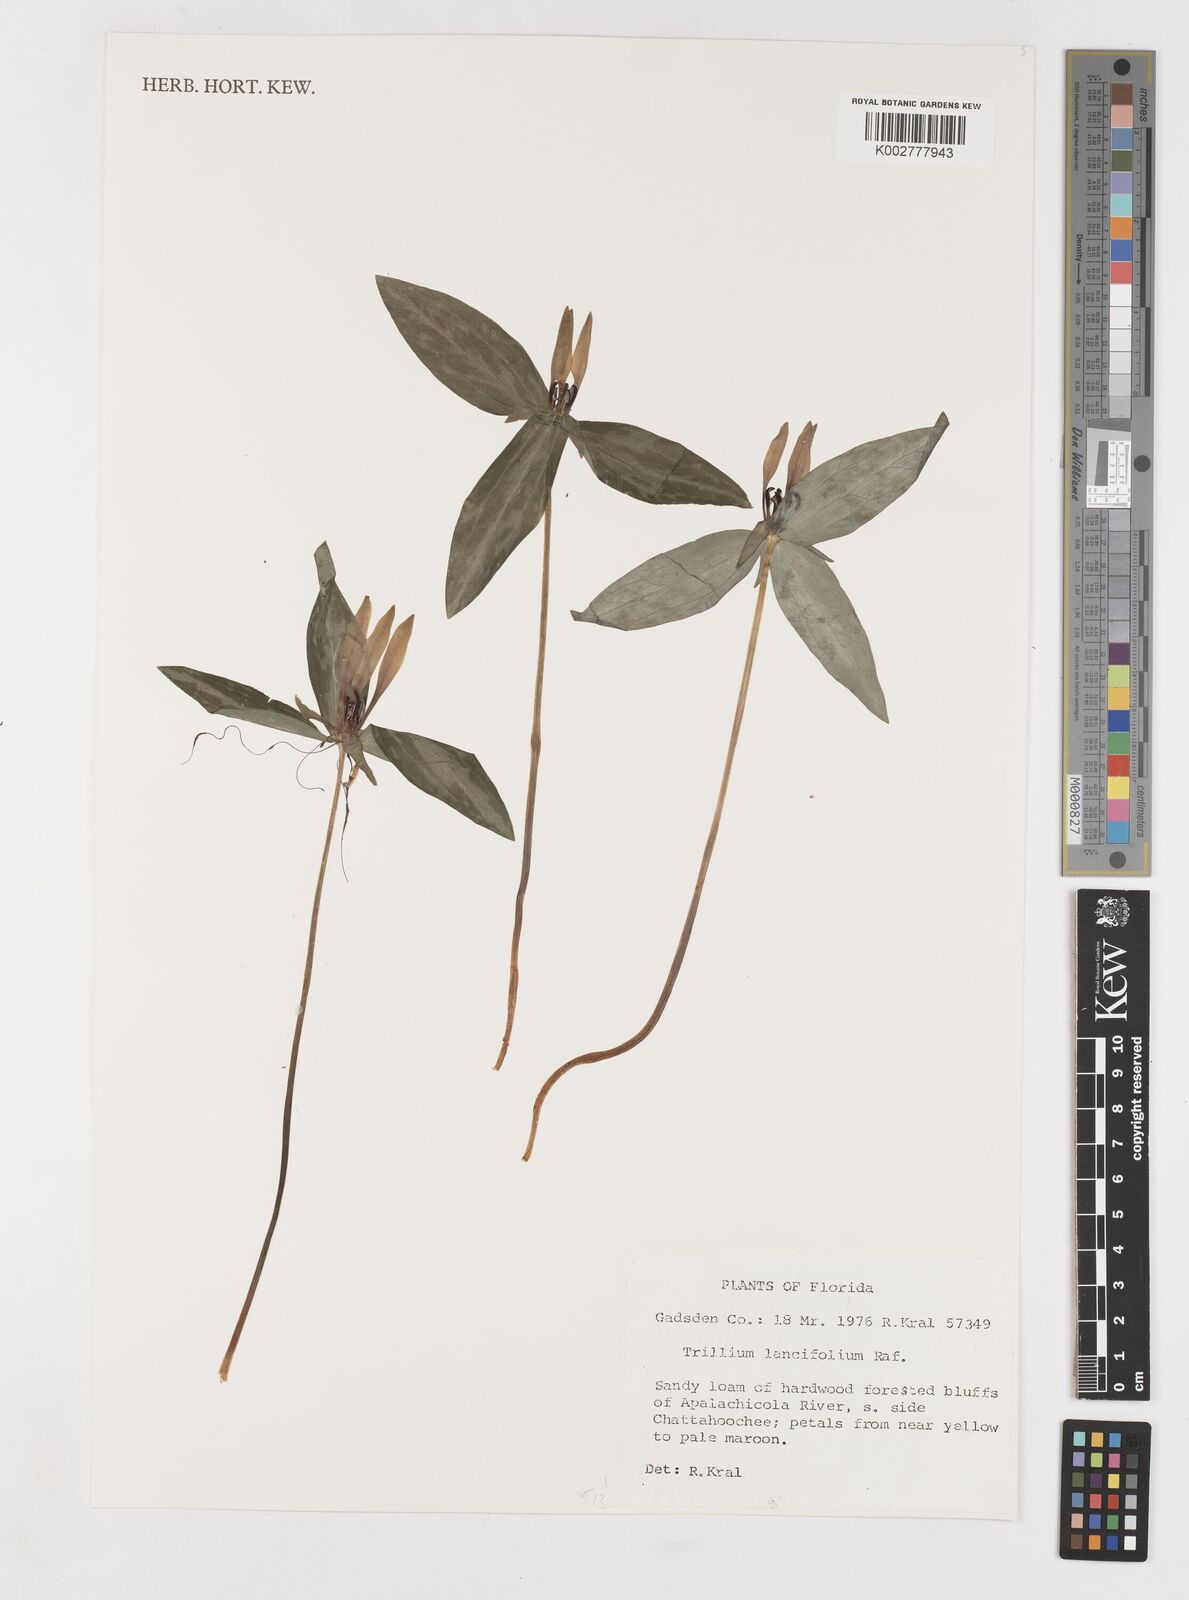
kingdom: Plantae
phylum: Tracheophyta
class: Liliopsida
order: Liliales
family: Melanthiaceae
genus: Trillium
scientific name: Trillium lancifolium
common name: Lance-leaved trillium
